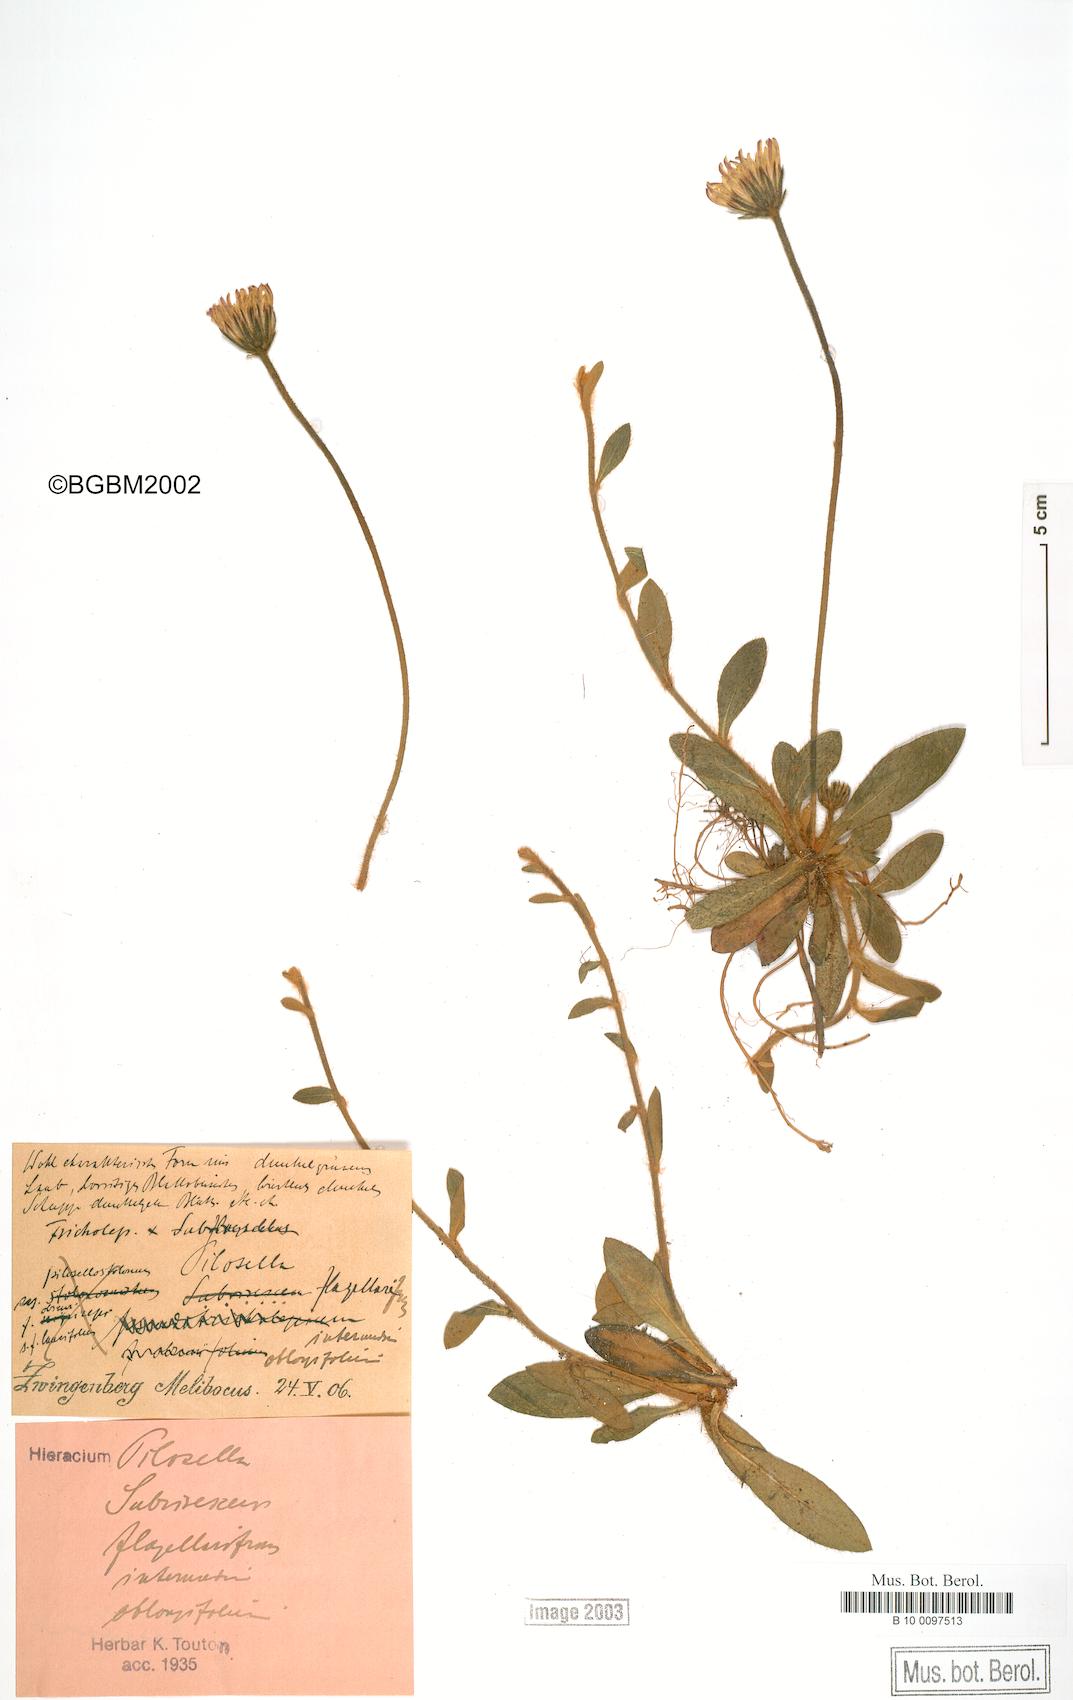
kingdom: Plantae
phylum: Tracheophyta
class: Magnoliopsida
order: Asterales
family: Asteraceae
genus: Pilosella
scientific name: Pilosella officinarum
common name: Mouse-ear hawkweed
